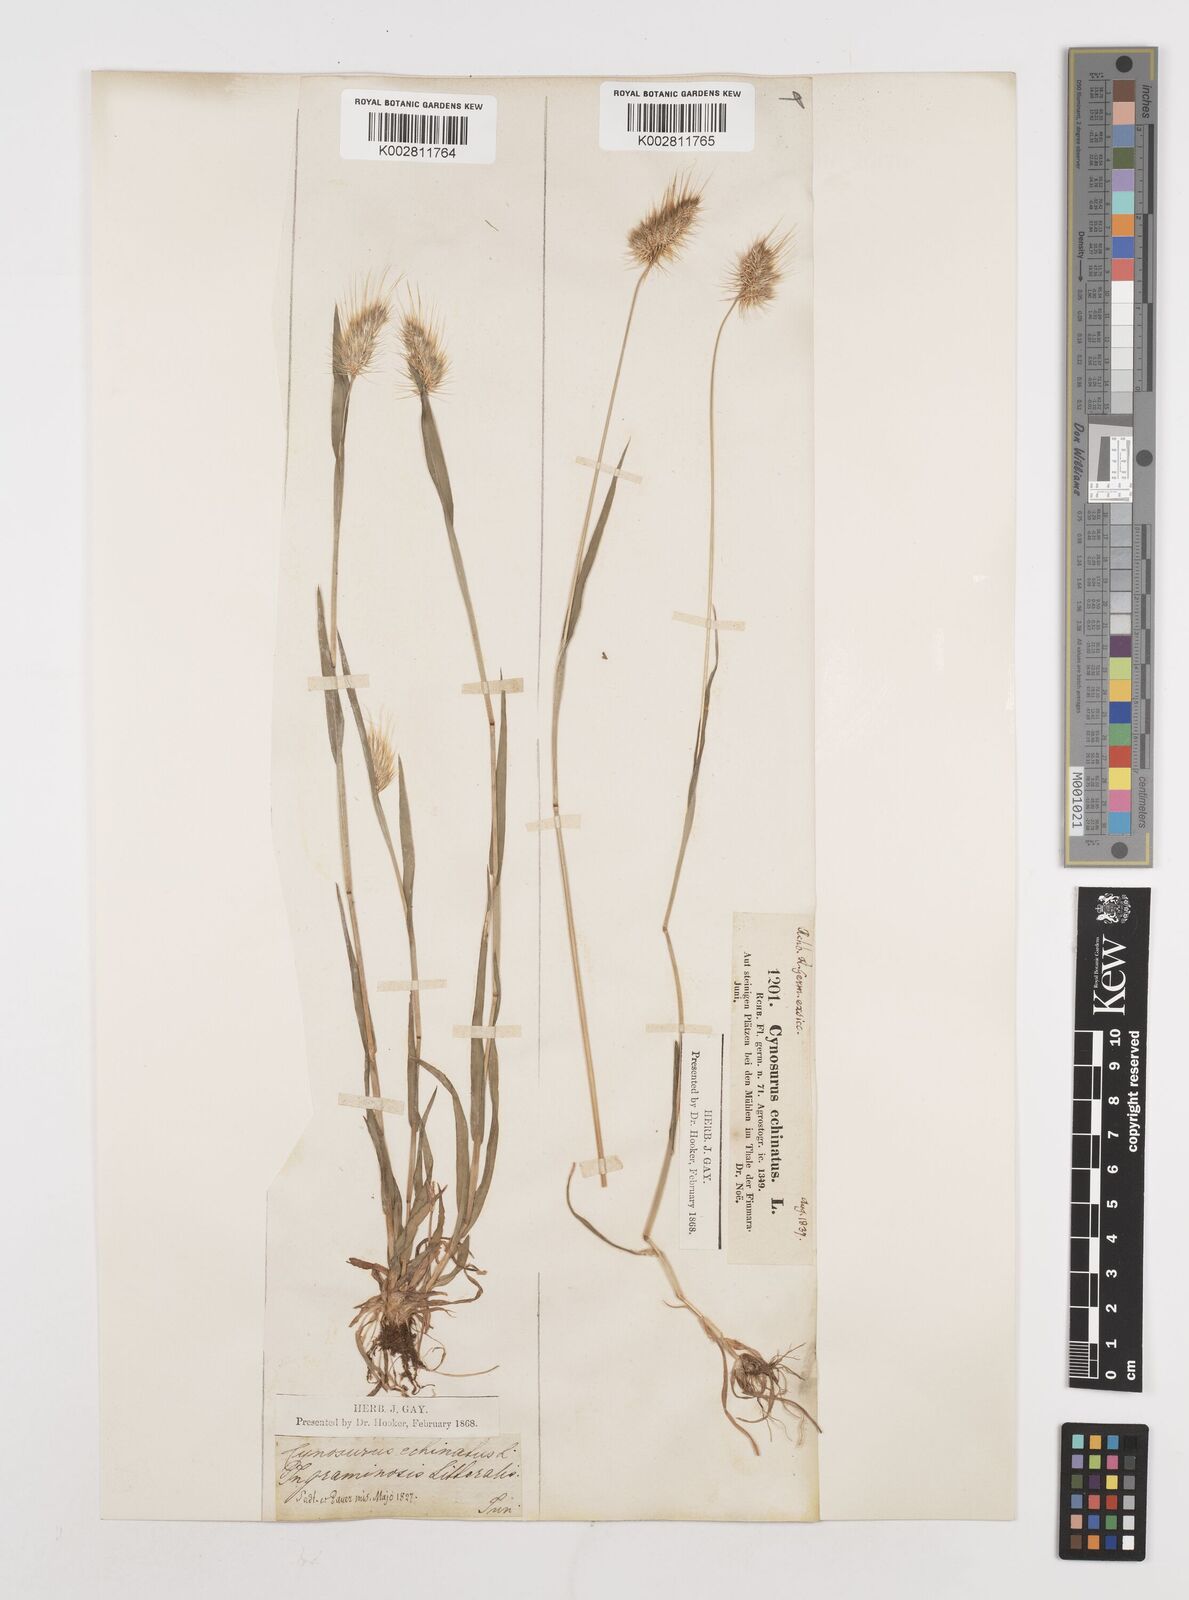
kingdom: Plantae
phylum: Tracheophyta
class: Liliopsida
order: Poales
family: Poaceae
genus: Cynosurus
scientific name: Cynosurus echinatus
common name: Rough dog's-tail
